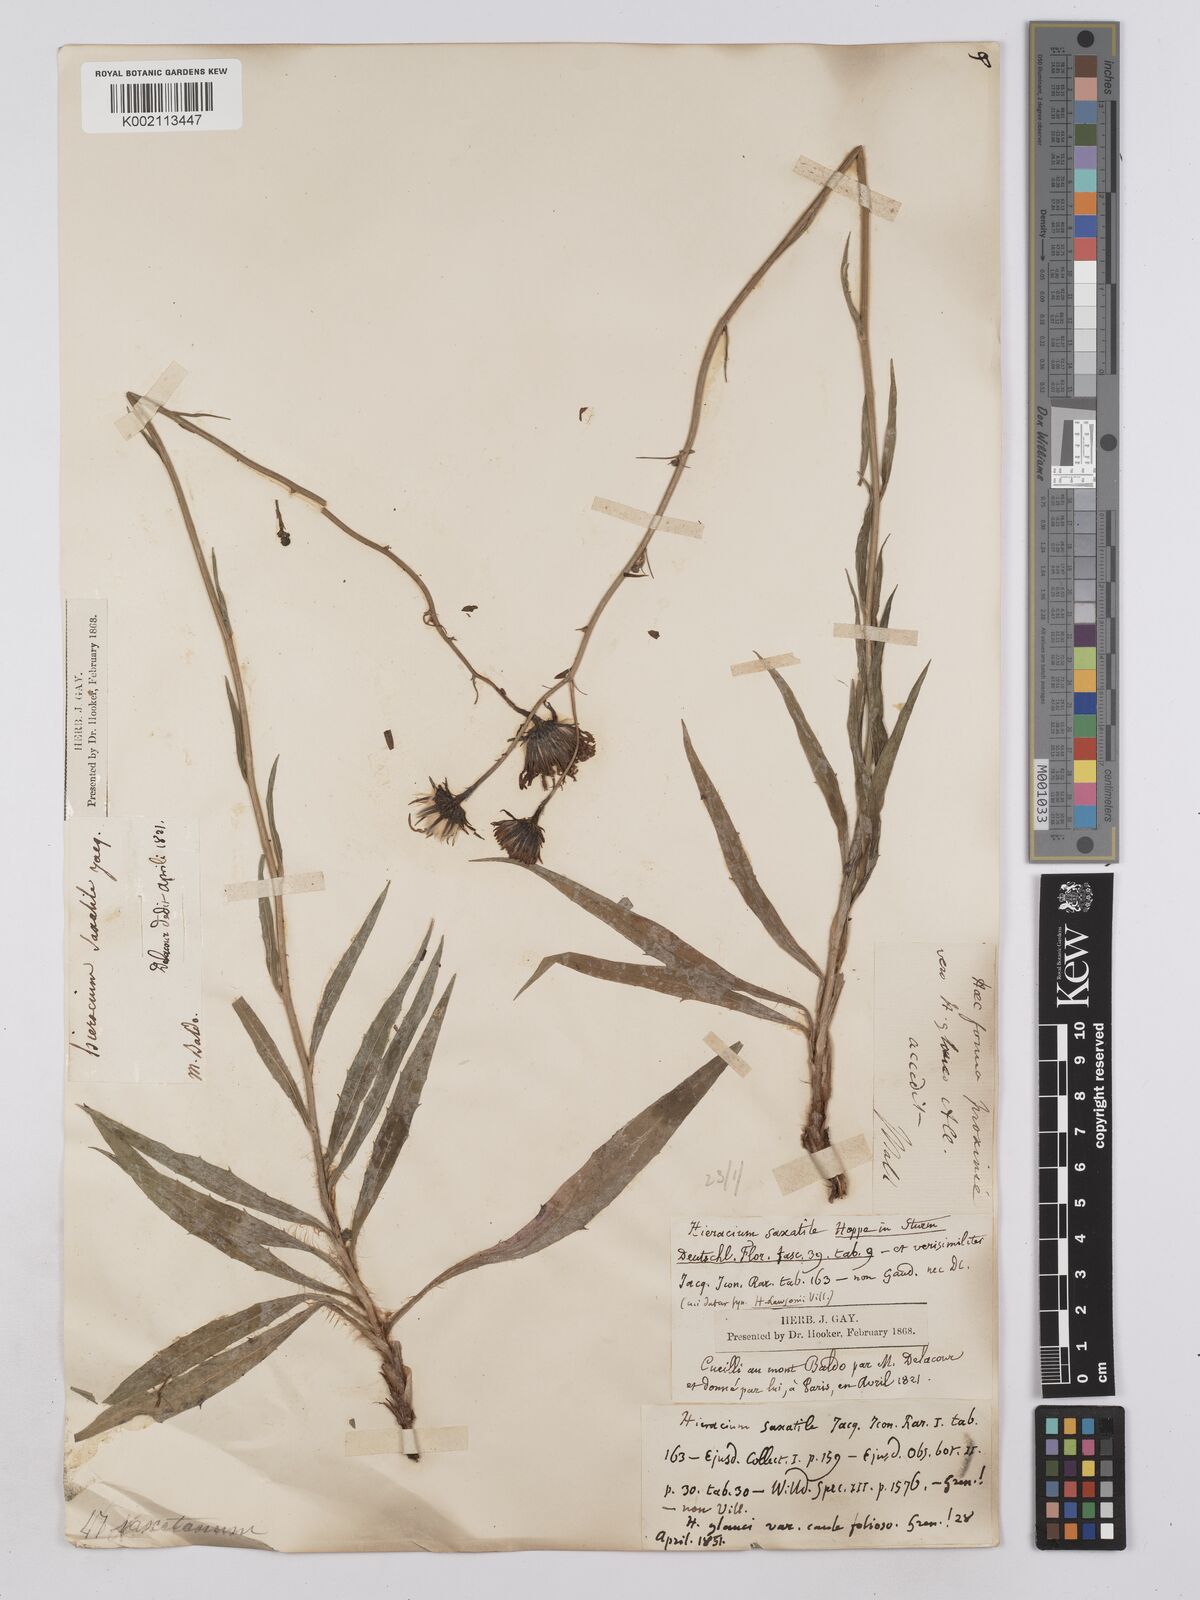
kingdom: Plantae
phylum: Tracheophyta
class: Magnoliopsida
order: Asterales
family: Asteraceae
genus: Hieracium
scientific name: Hieracium calcareum
